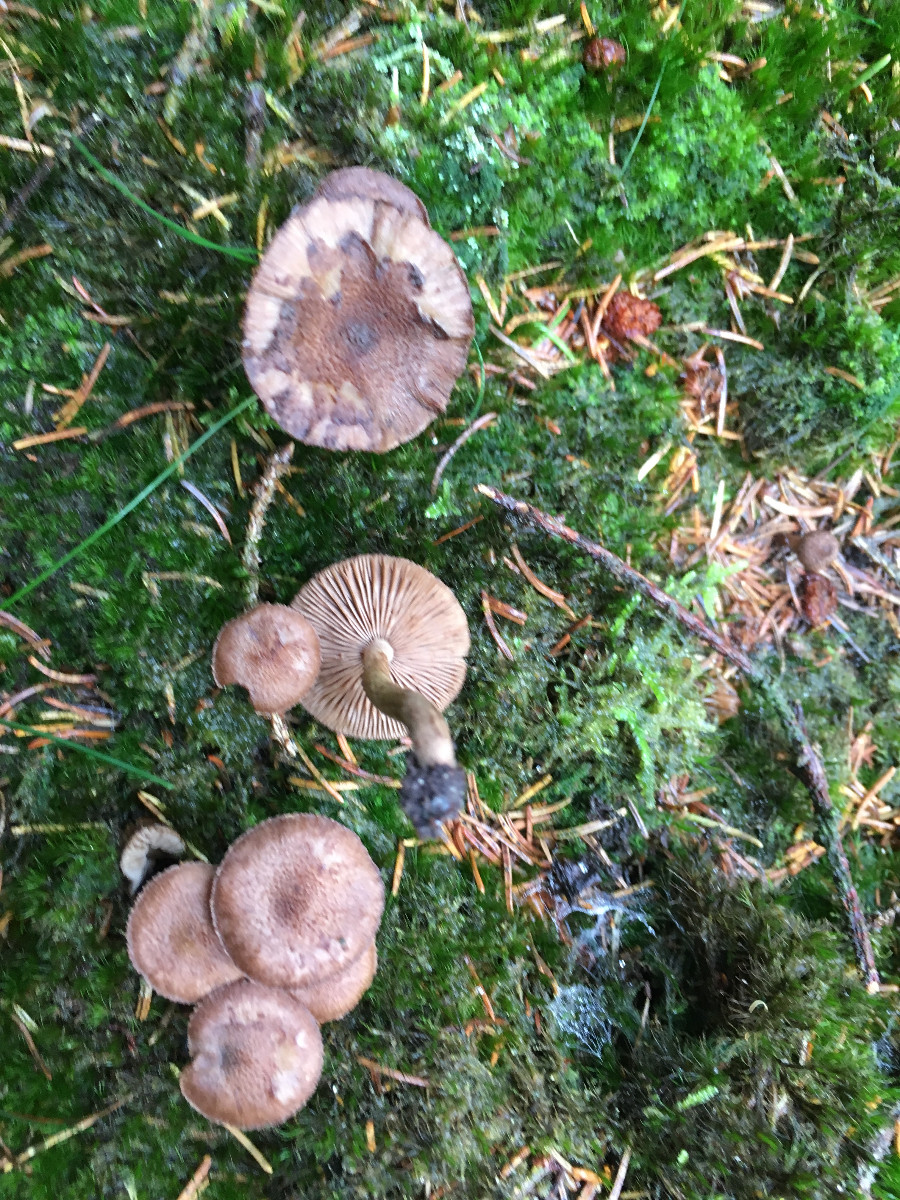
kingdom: Fungi
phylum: Basidiomycota
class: Agaricomycetes
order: Agaricales
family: Inocybaceae
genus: Inocybe
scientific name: Inocybe
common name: trævlhat
